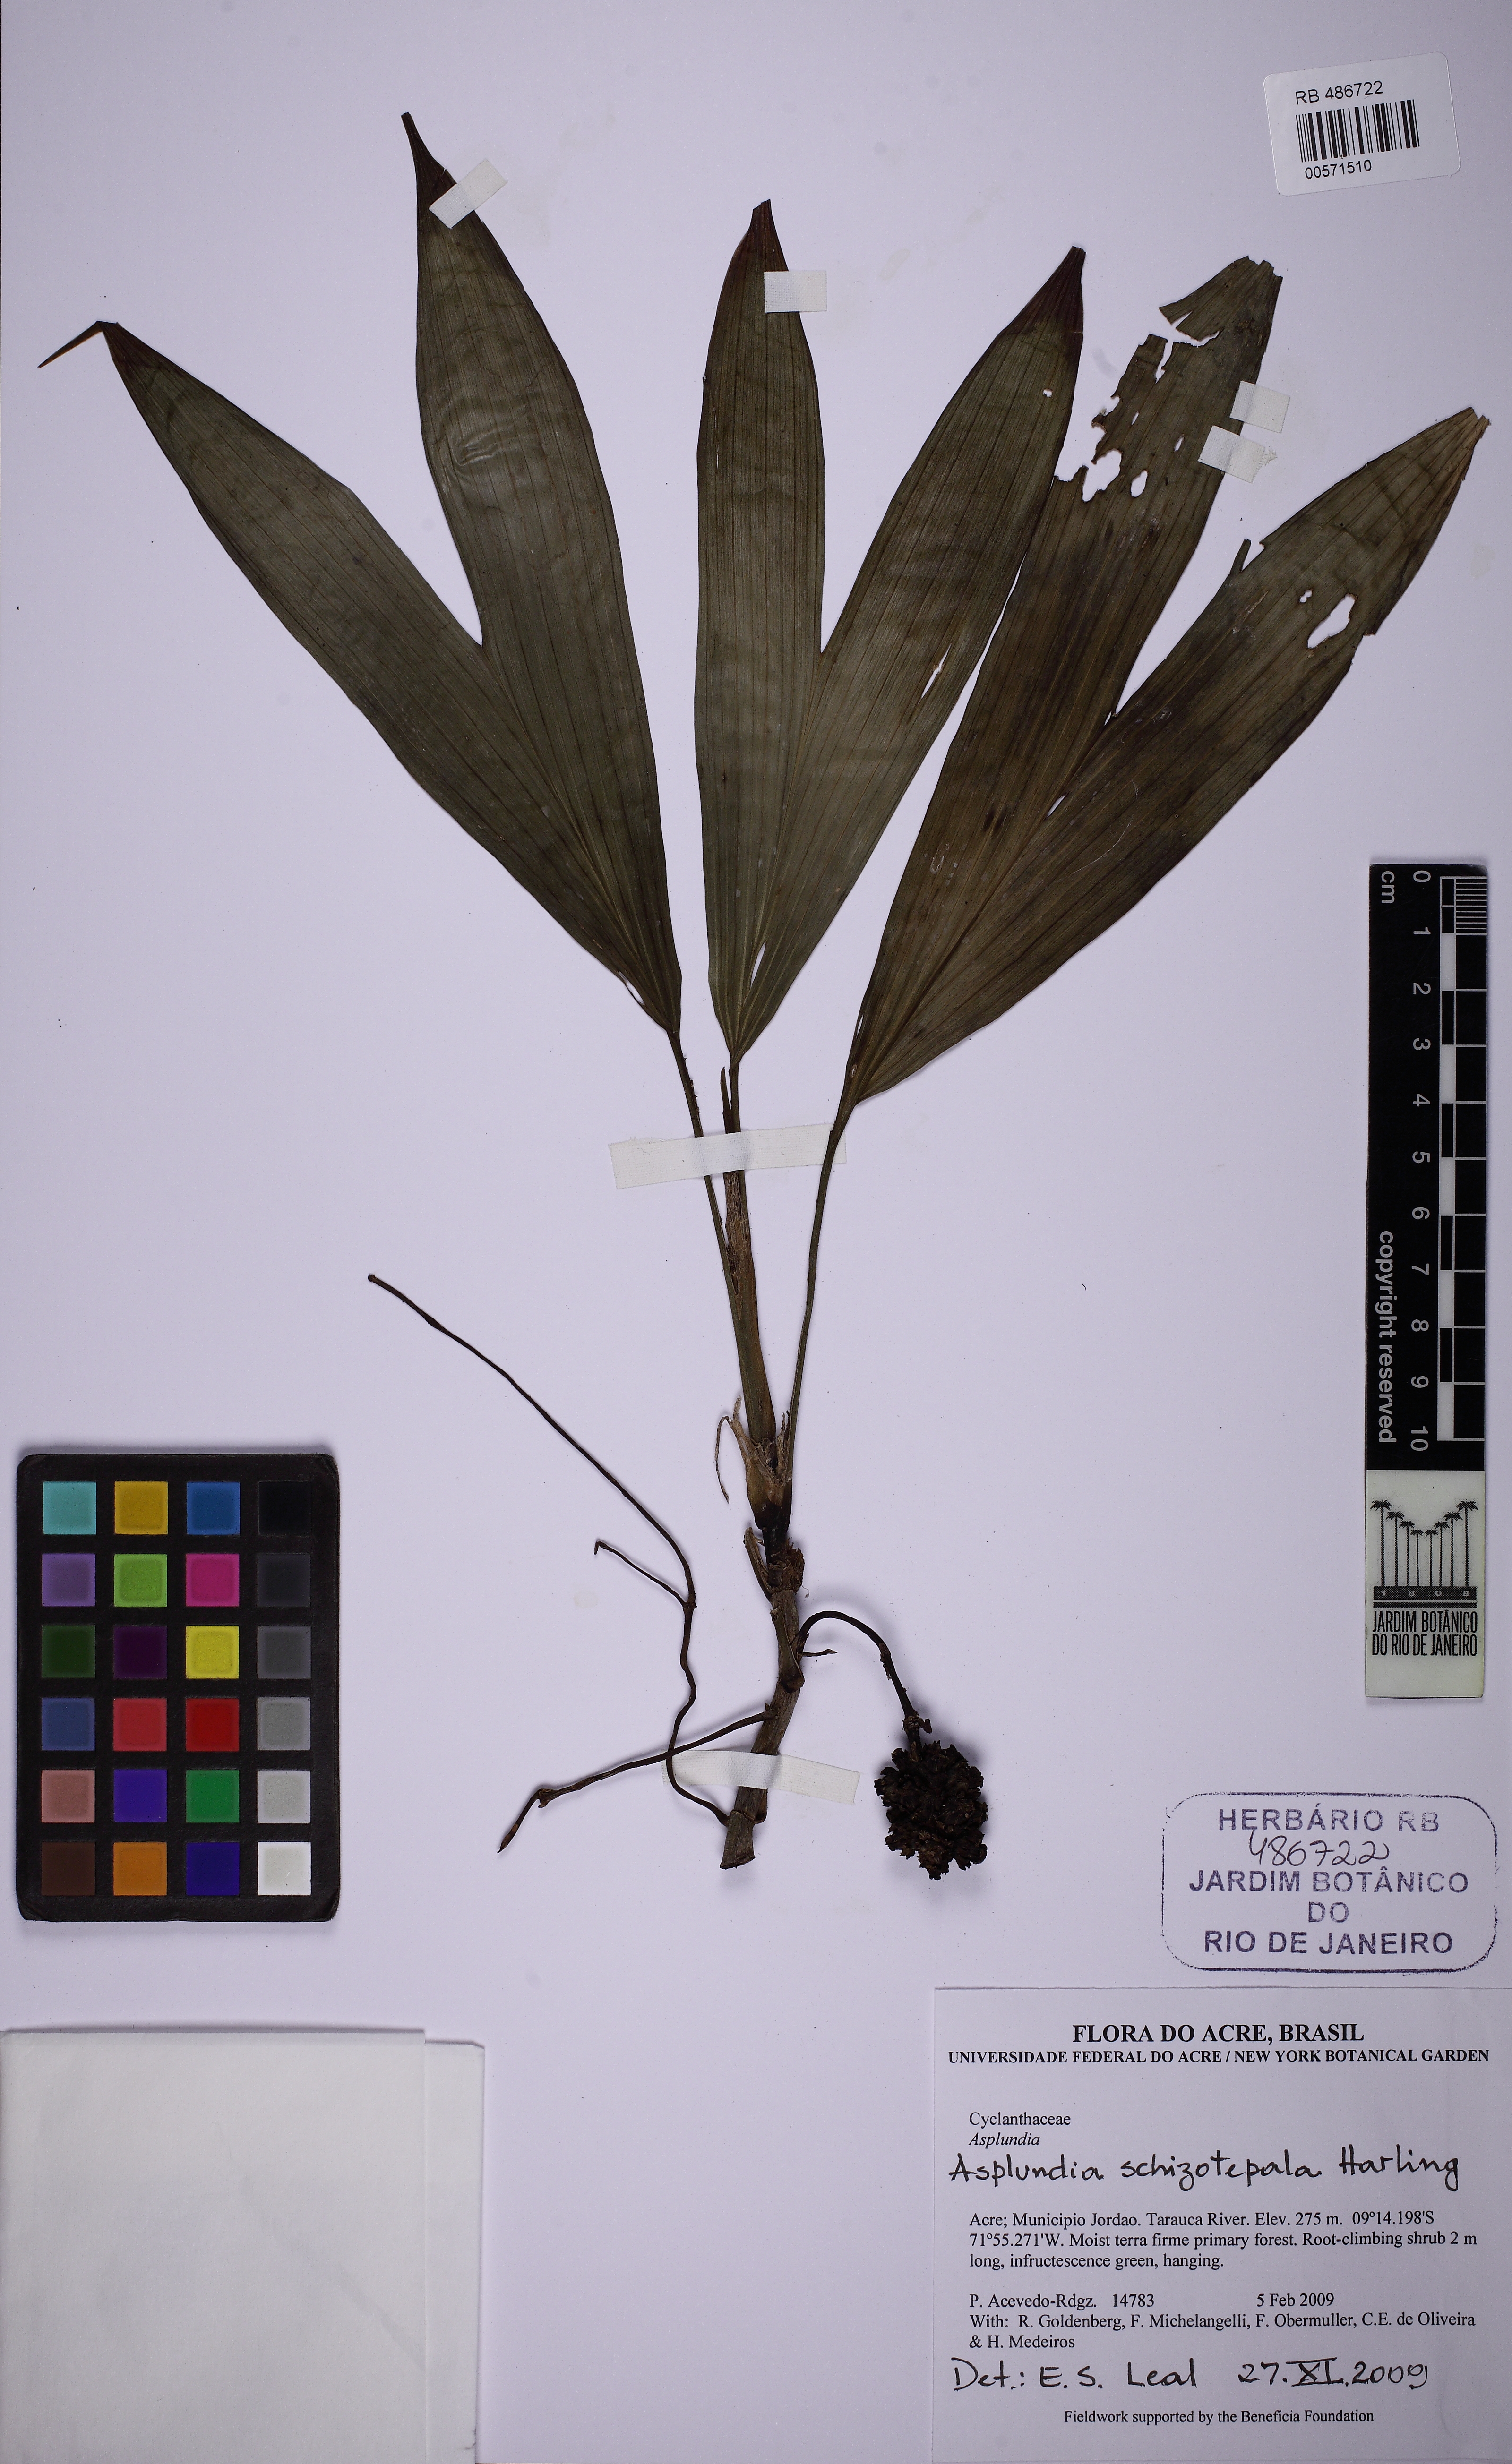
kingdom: Plantae
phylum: Tracheophyta
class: Liliopsida
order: Pandanales
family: Cyclanthaceae
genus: Asplundia
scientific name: Asplundia schizotepala
